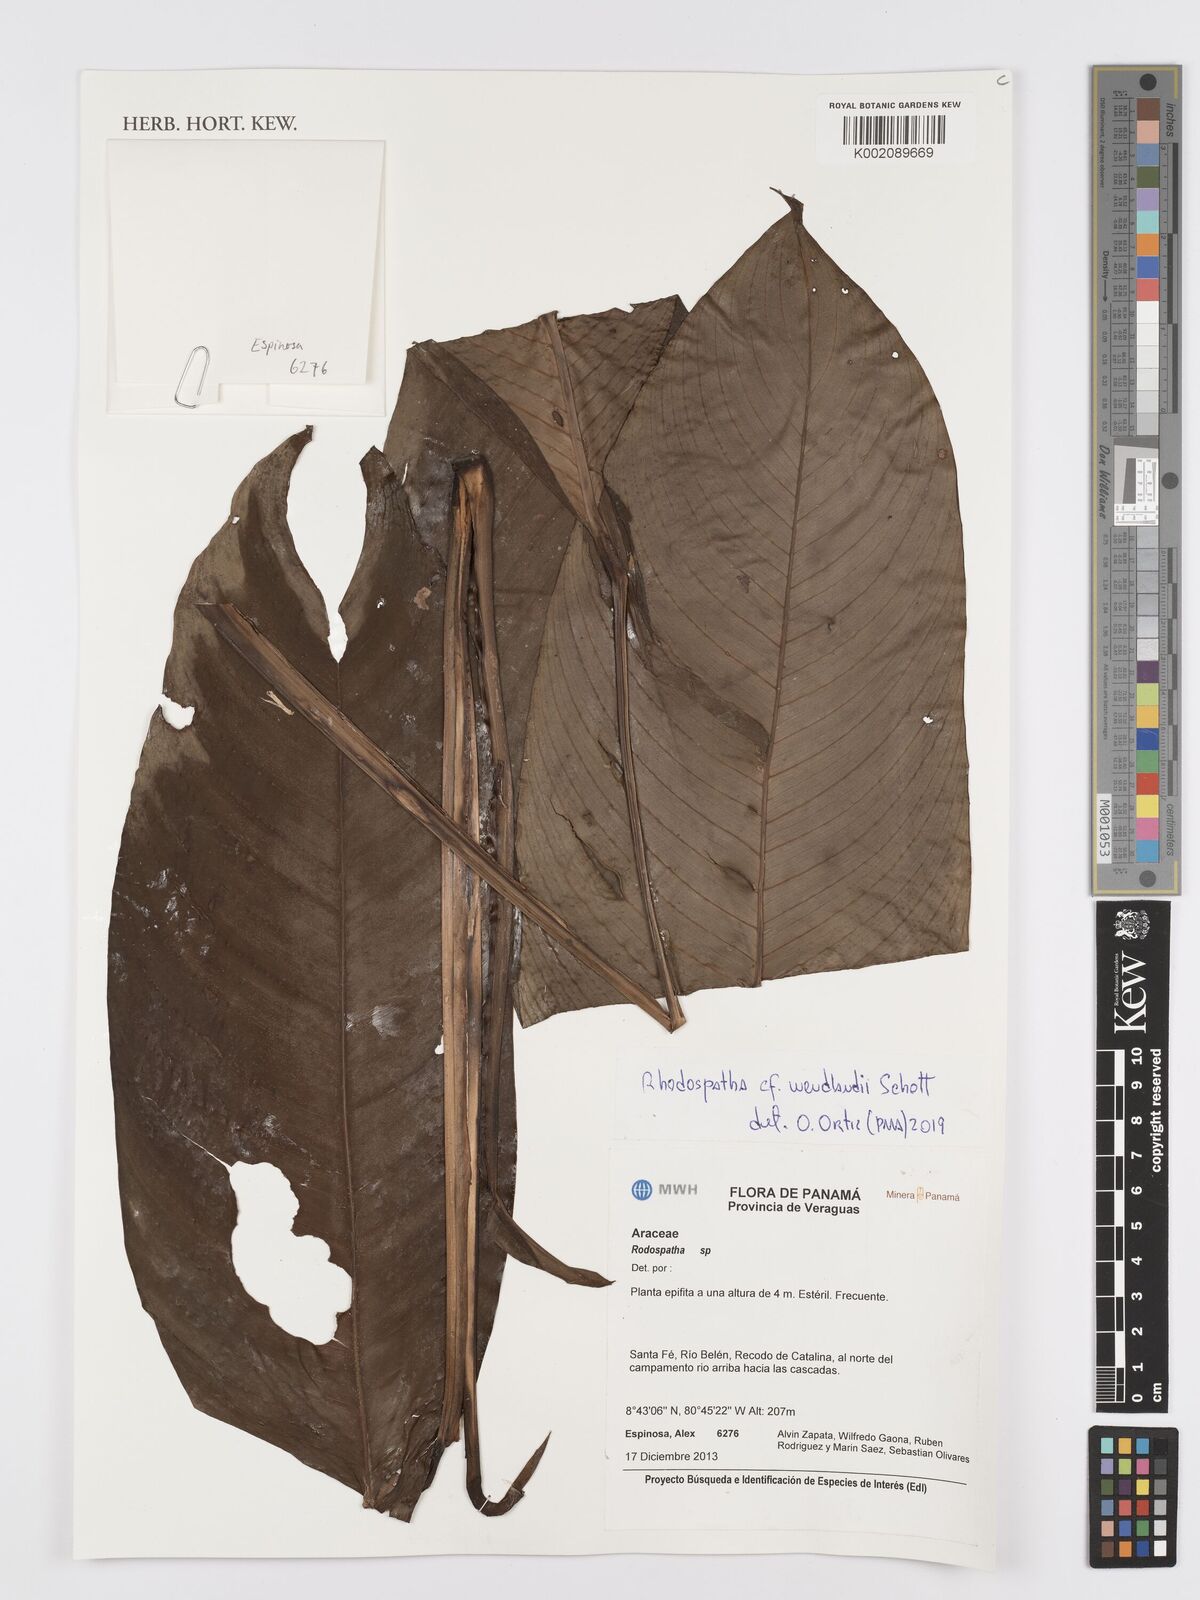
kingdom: Plantae
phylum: Tracheophyta
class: Liliopsida
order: Alismatales
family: Araceae
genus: Rhodospatha
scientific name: Rhodospatha wendlandii
